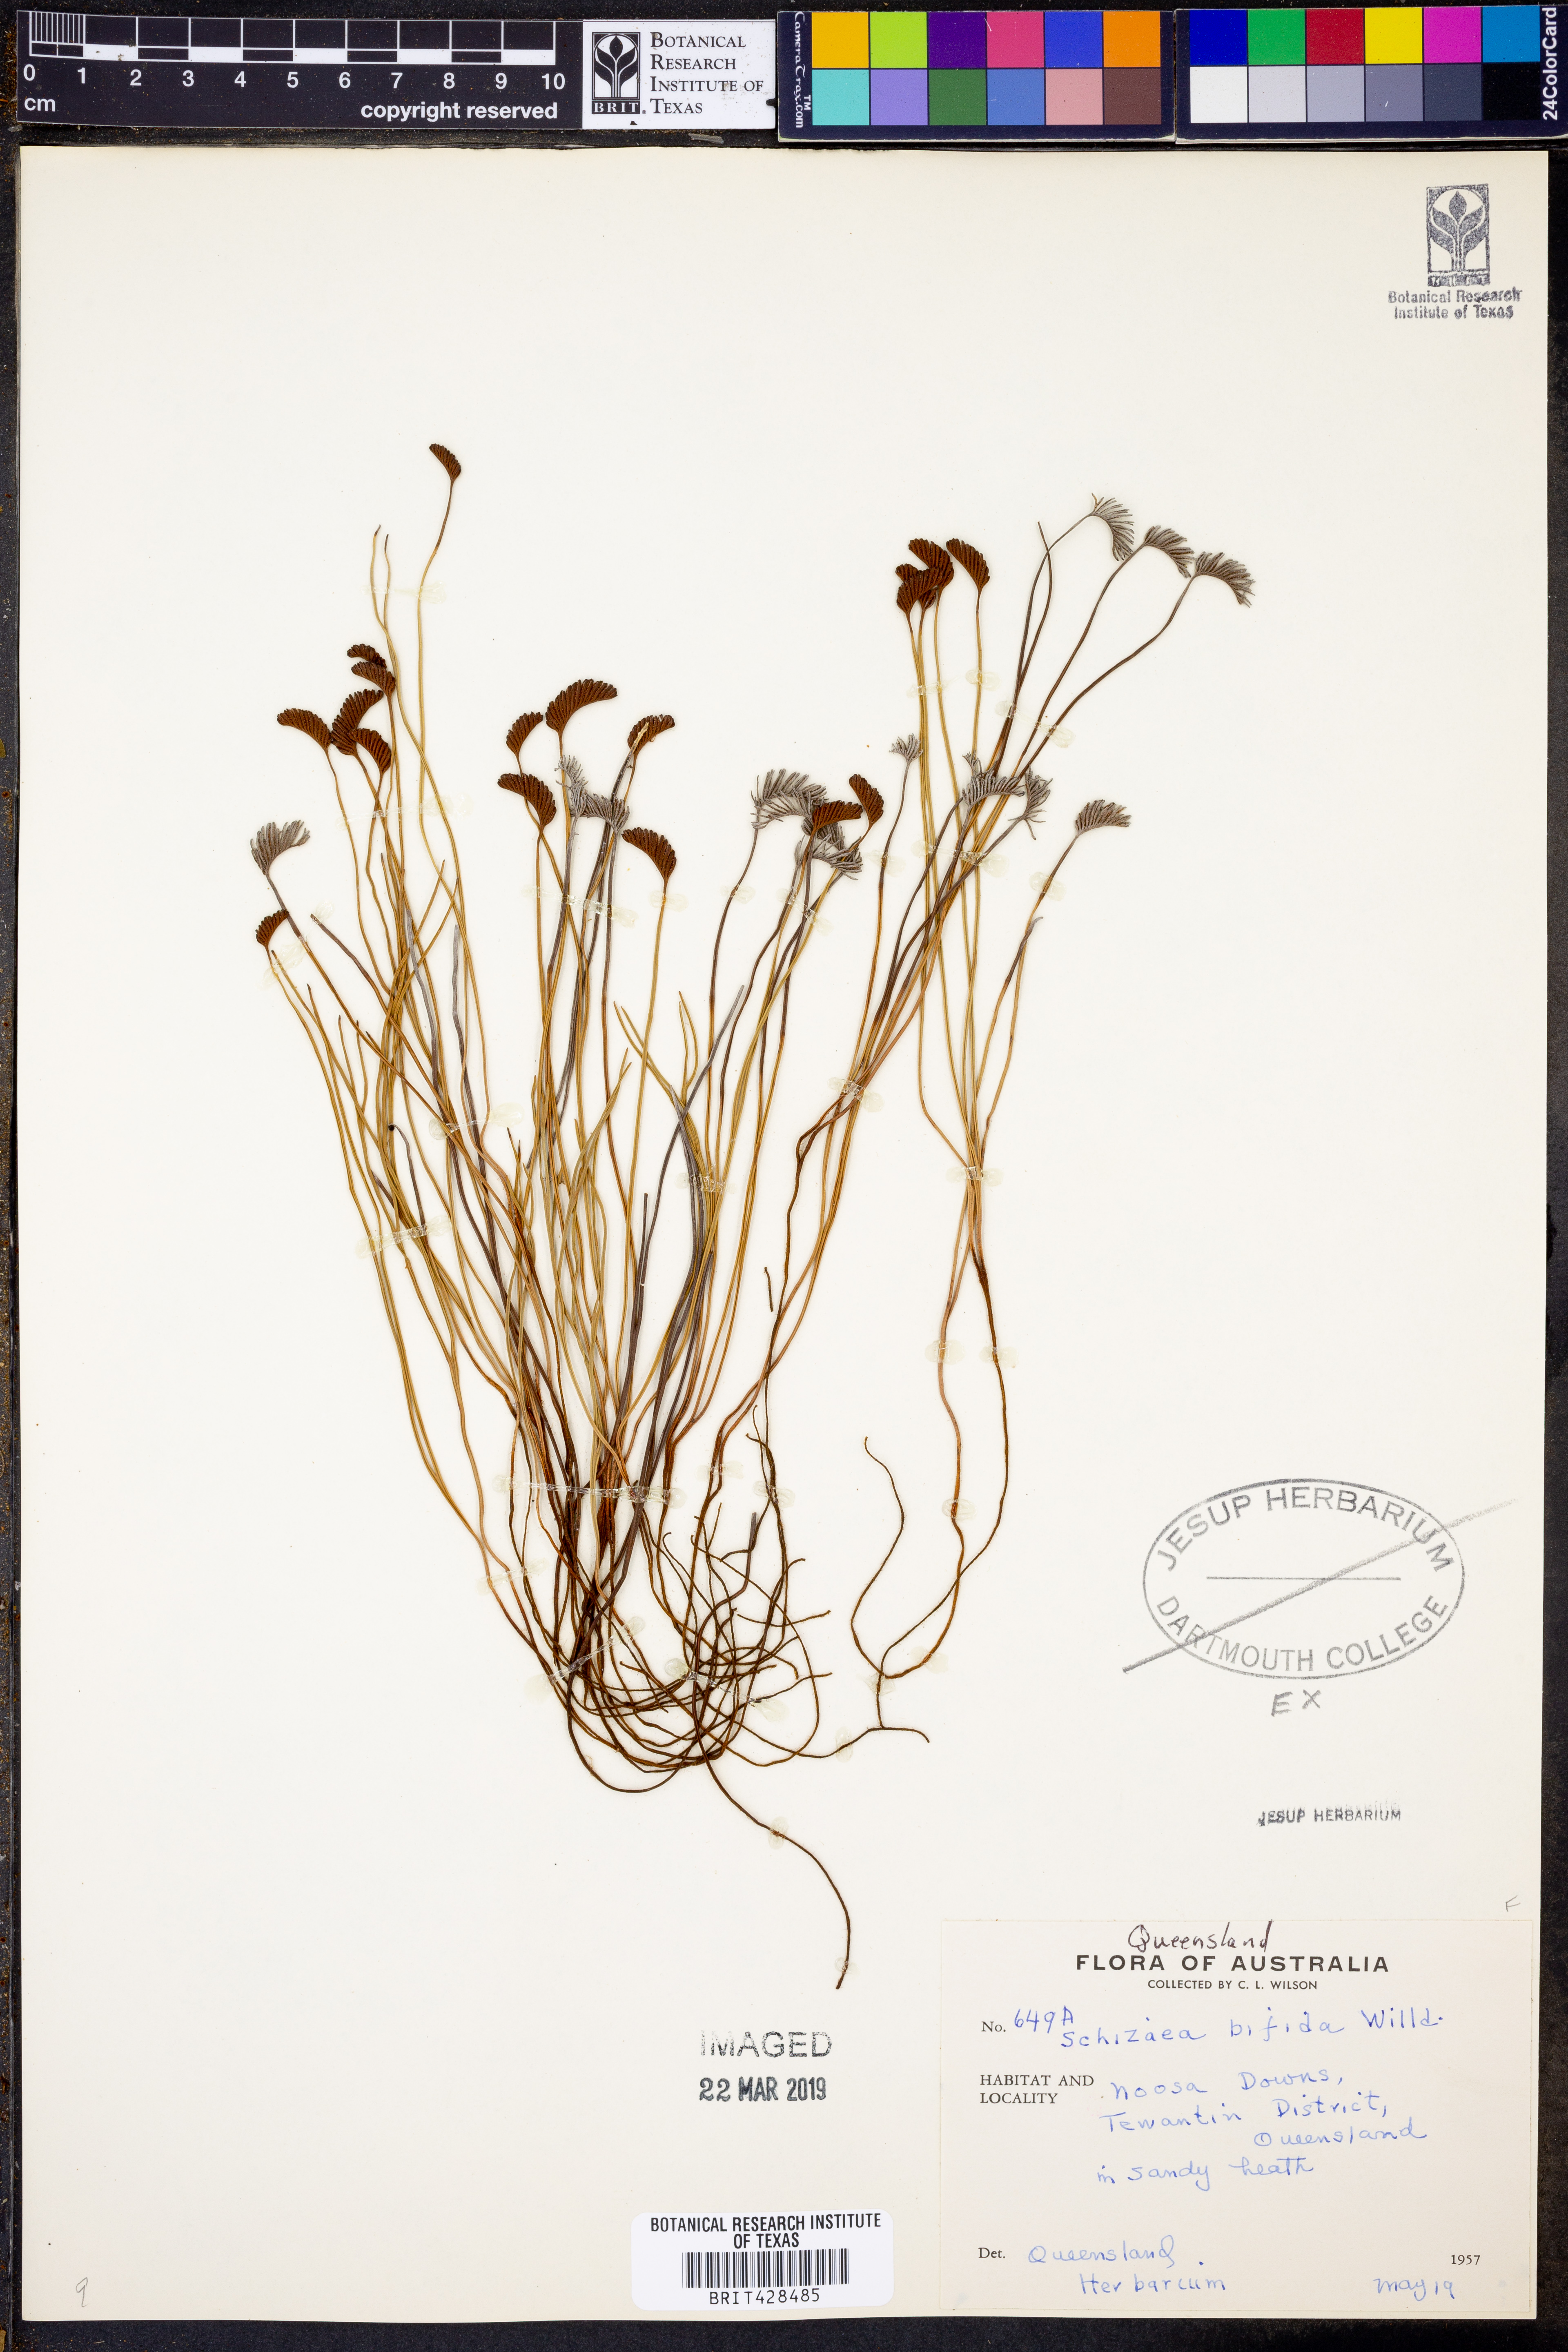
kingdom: Plantae
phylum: Tracheophyta
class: Polypodiopsida
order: Schizaeales
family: Schizaeaceae
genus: Schizaea
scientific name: Schizaea bifida
